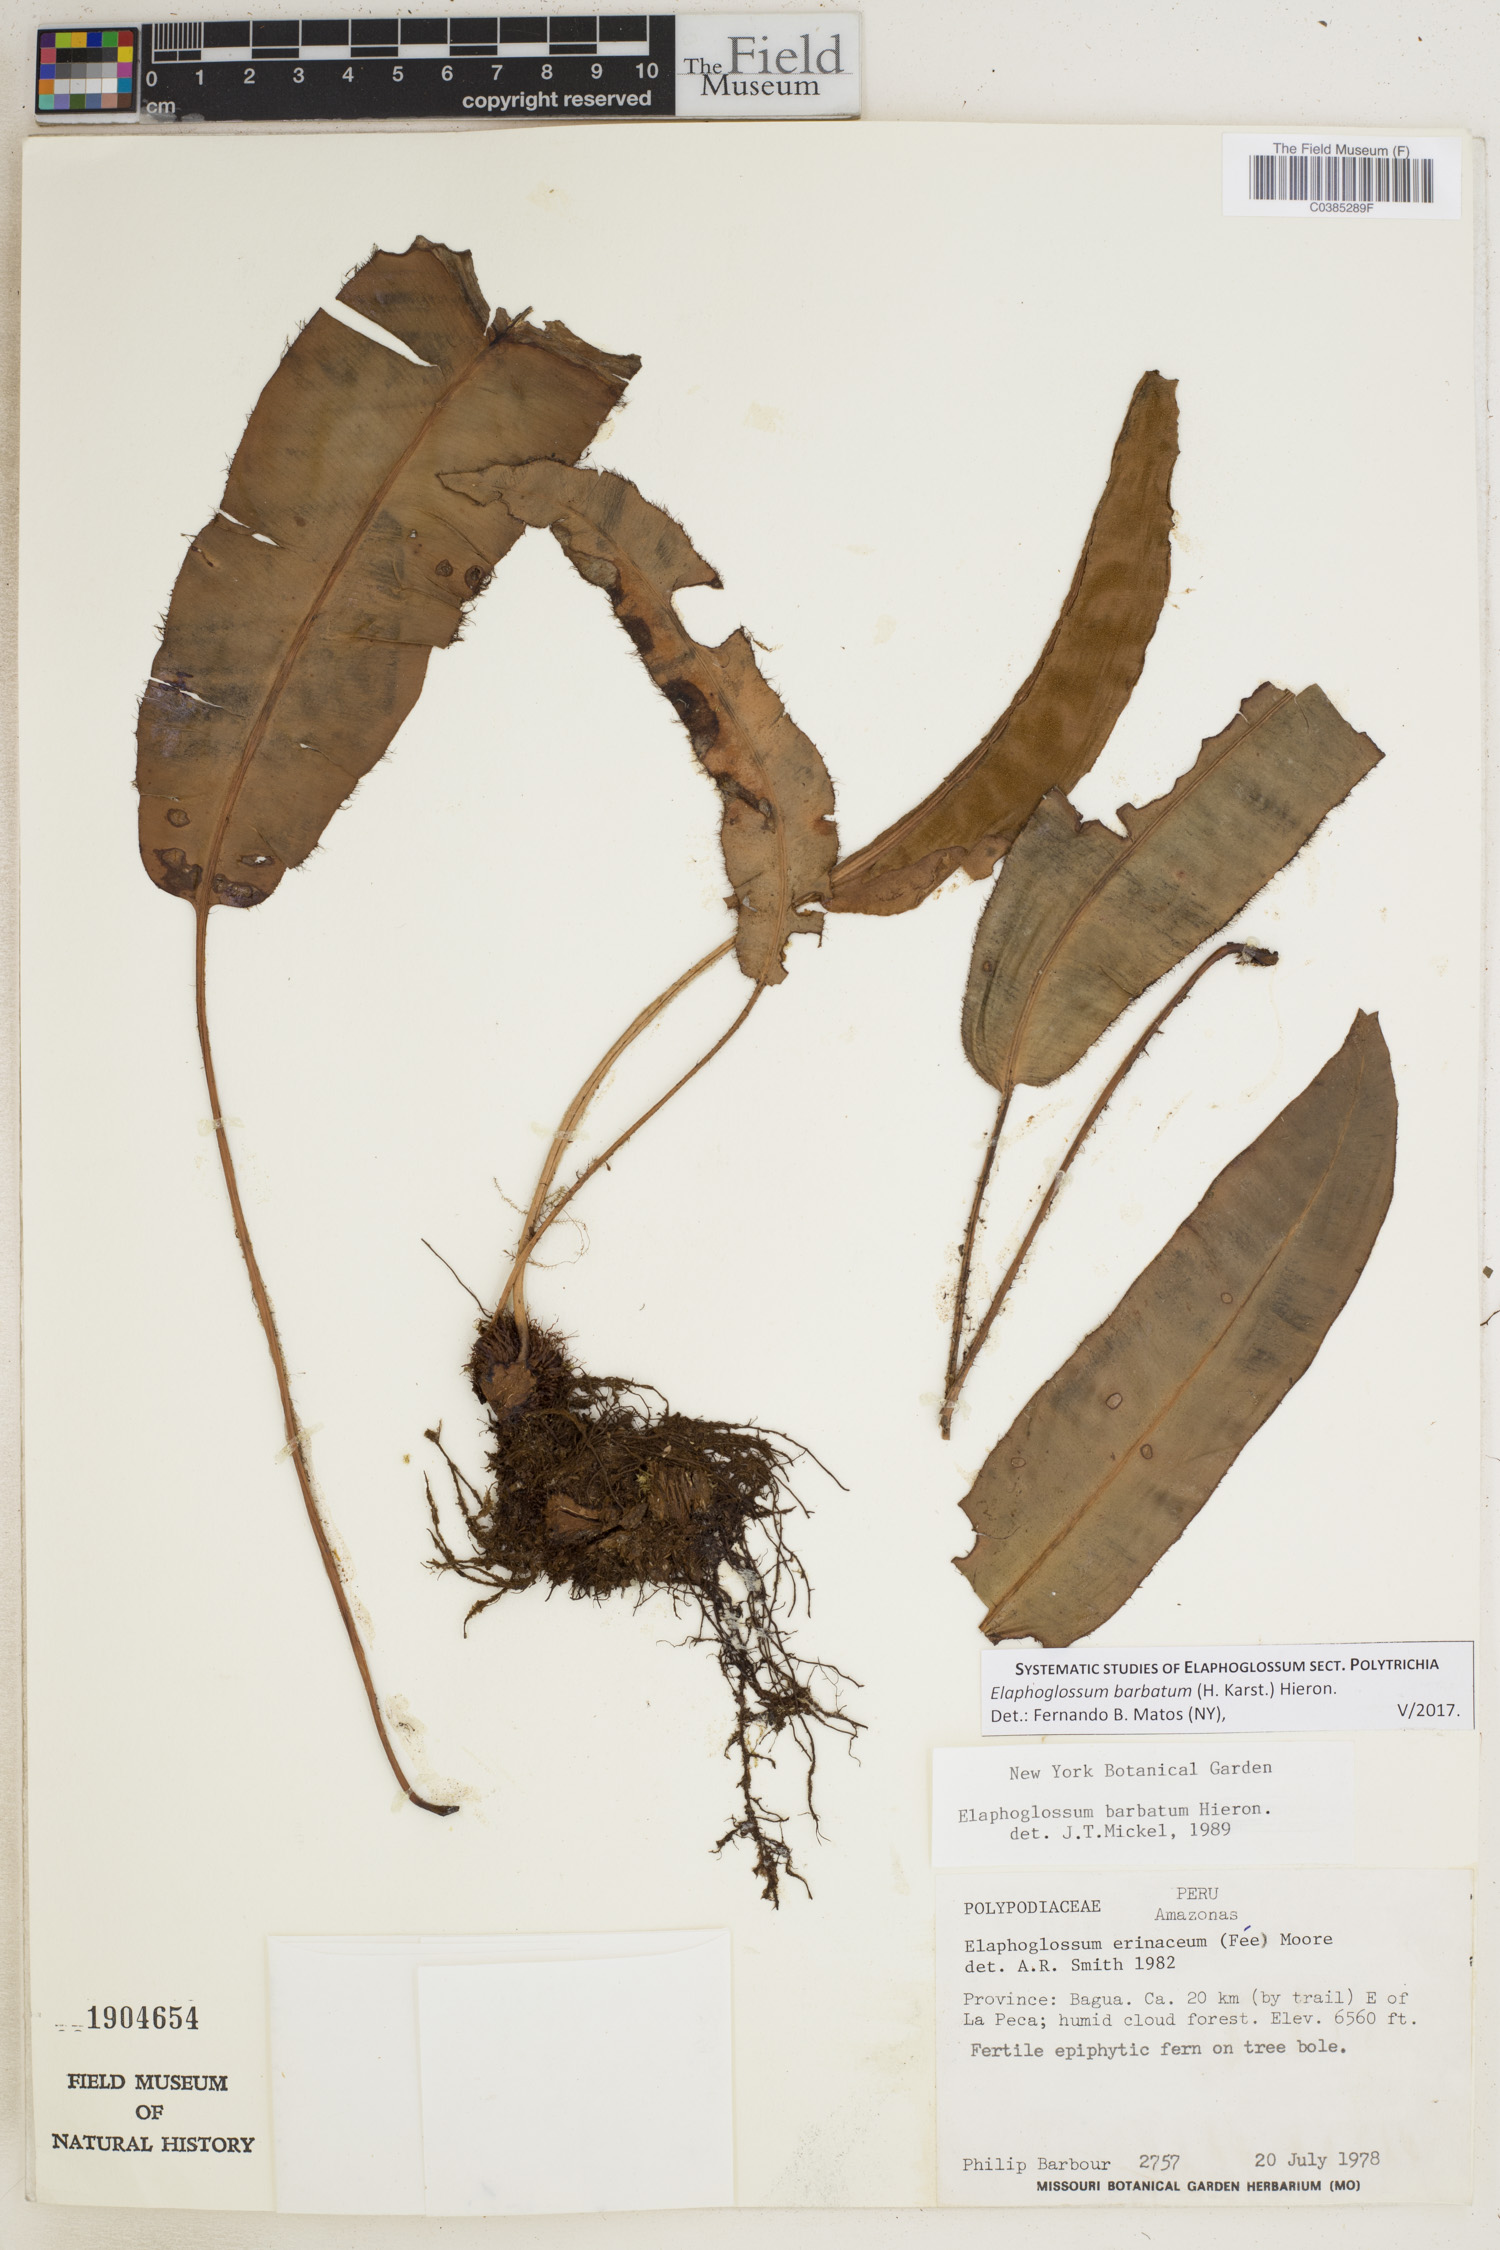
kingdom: Plantae
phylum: Tracheophyta
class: Polypodiopsida
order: Polypodiales
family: Dryopteridaceae
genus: Elaphoglossum
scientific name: Elaphoglossum barbatum
